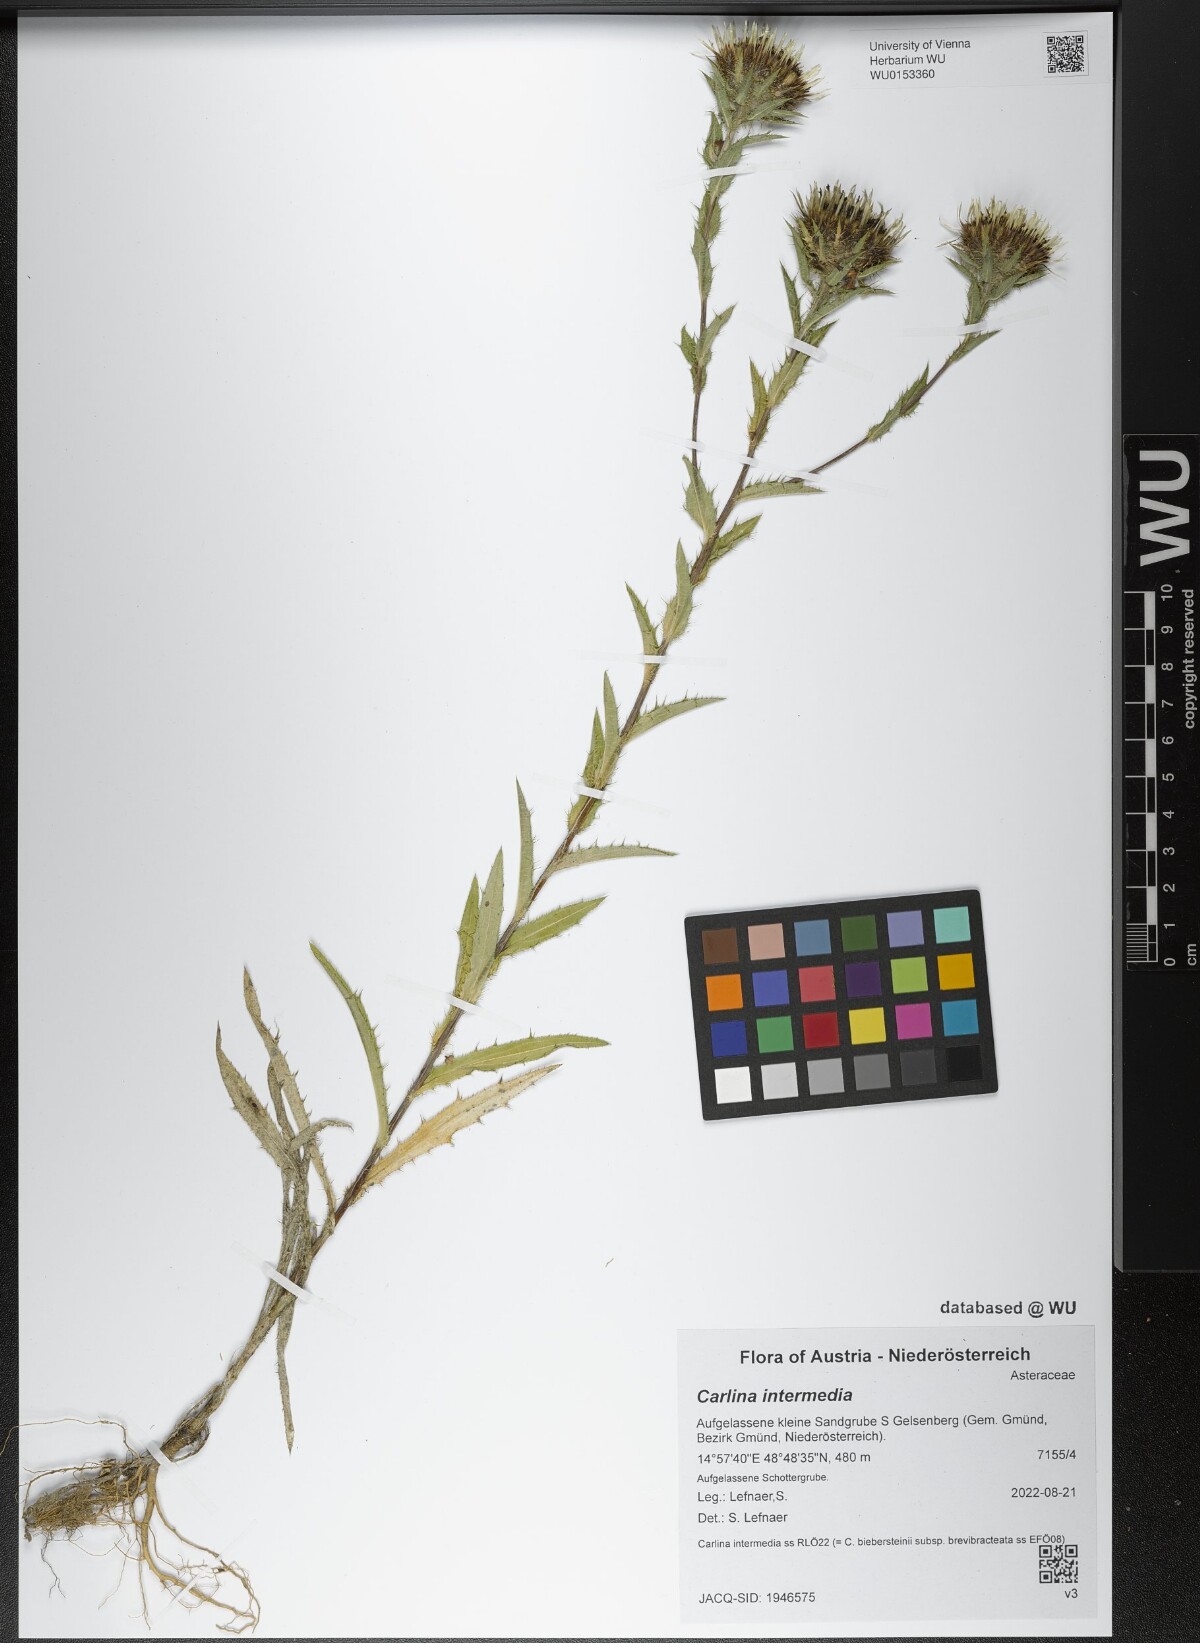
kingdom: Plantae
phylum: Tracheophyta
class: Magnoliopsida
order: Asterales
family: Asteraceae
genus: Carlina
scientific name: Carlina biebersteinii
